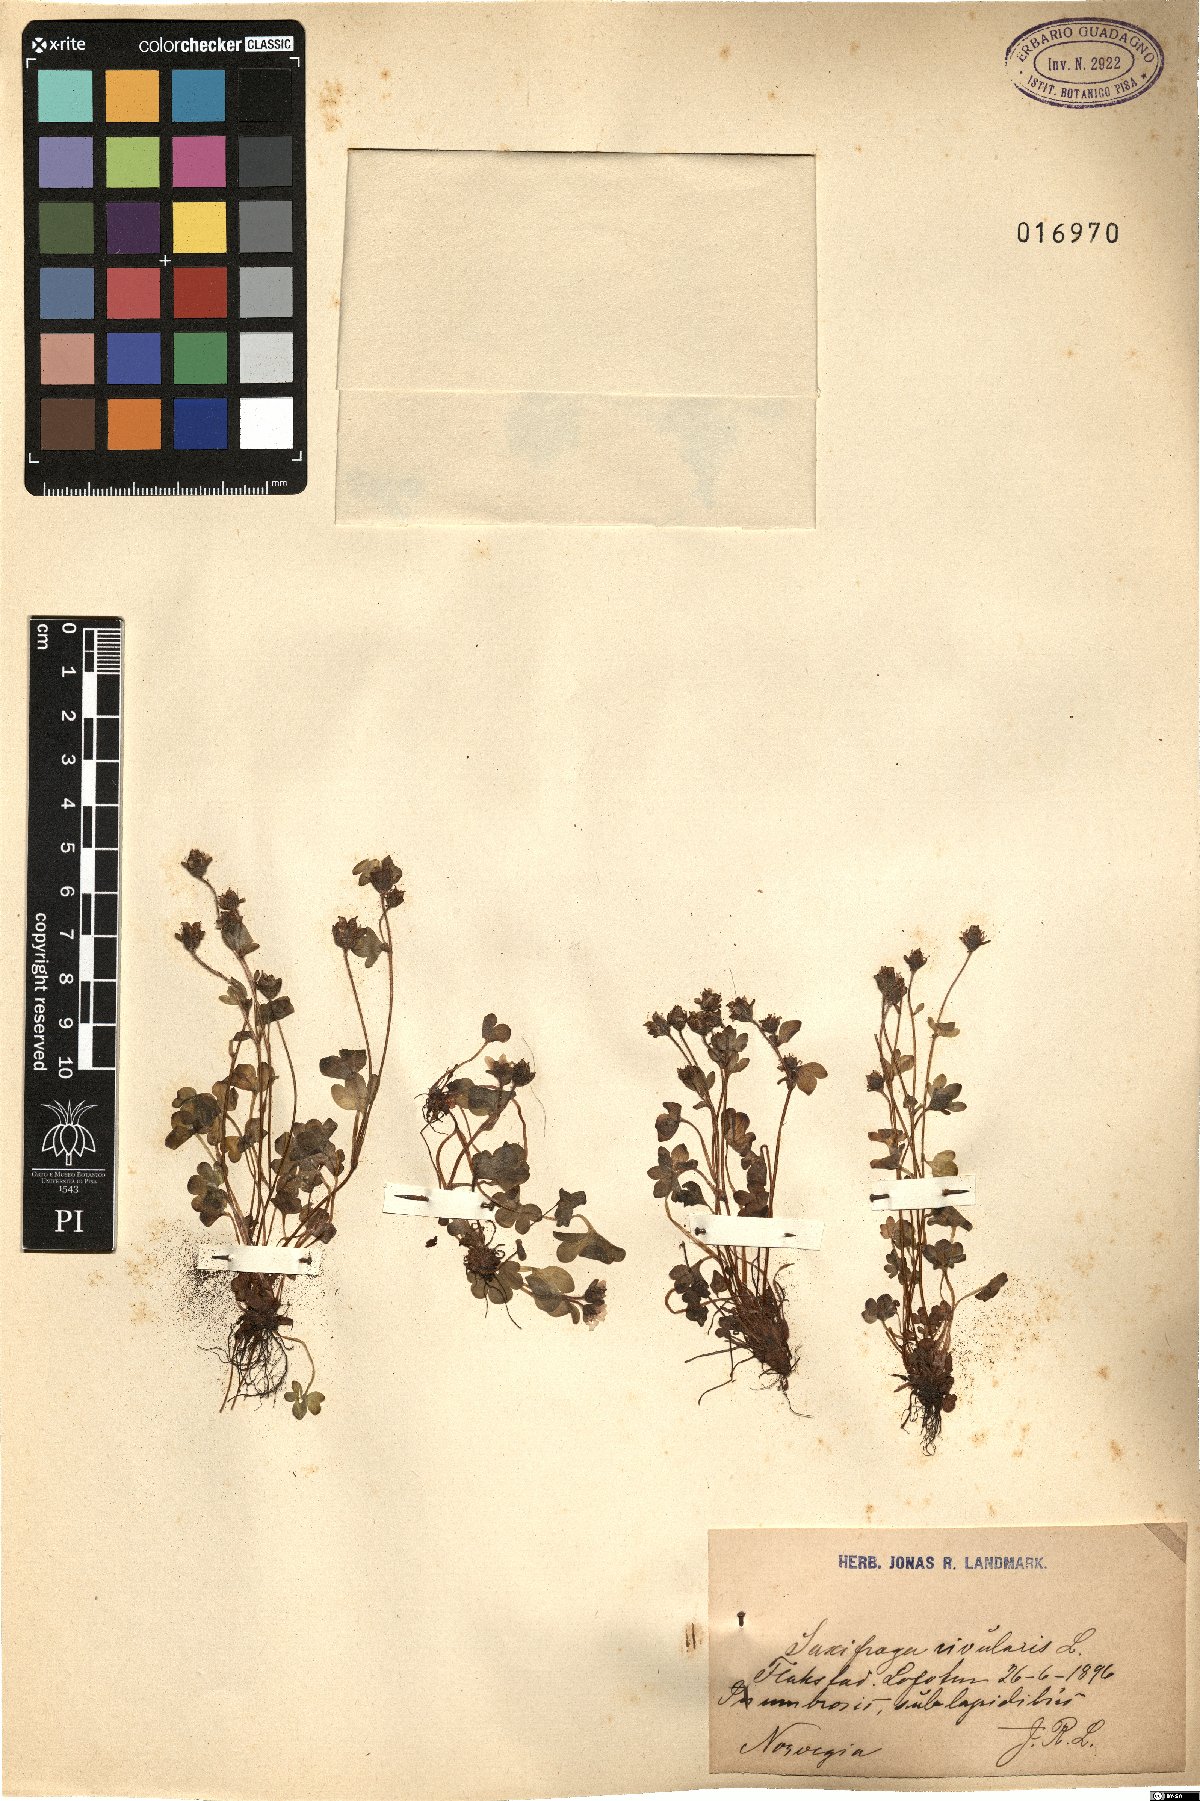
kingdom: Plantae
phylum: Tracheophyta
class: Magnoliopsida
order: Saxifragales
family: Saxifragaceae
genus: Saxifraga
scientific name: Saxifraga rivularis
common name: Highland saxifrage
